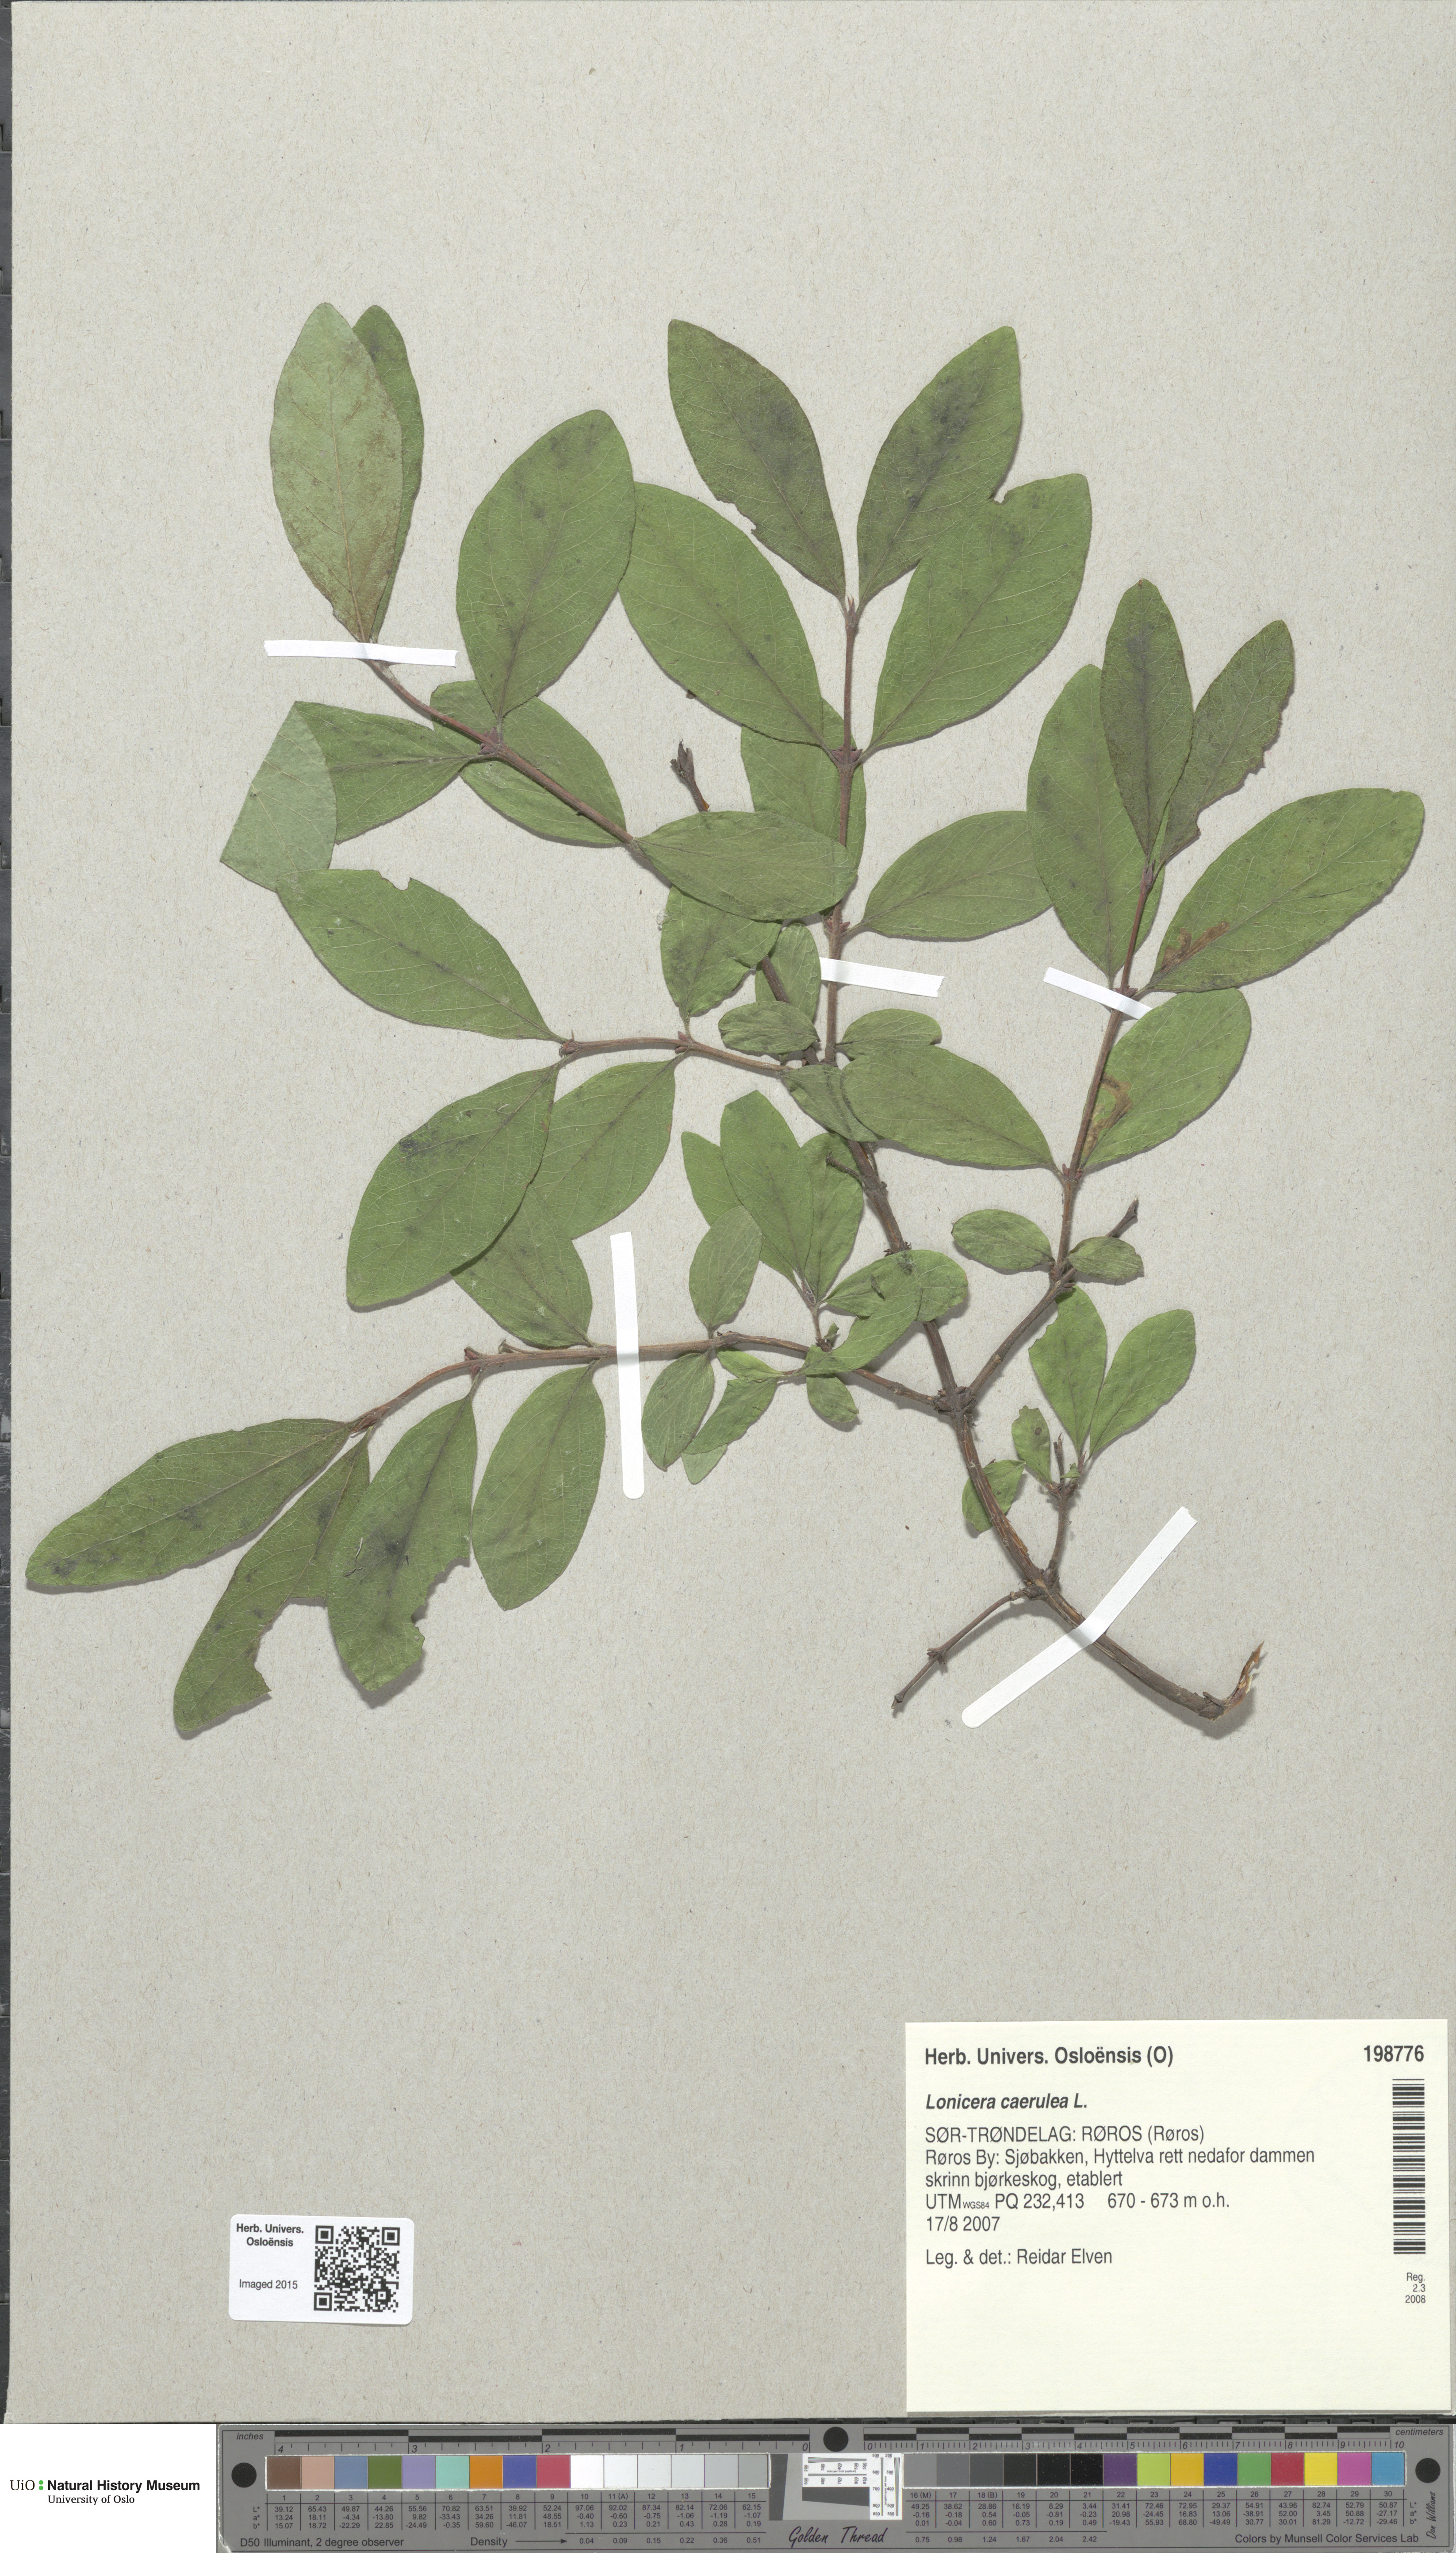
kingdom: Plantae
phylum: Tracheophyta
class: Magnoliopsida
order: Dipsacales
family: Caprifoliaceae
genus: Lonicera
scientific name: Lonicera caerulea
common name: Blue honeysuckle
